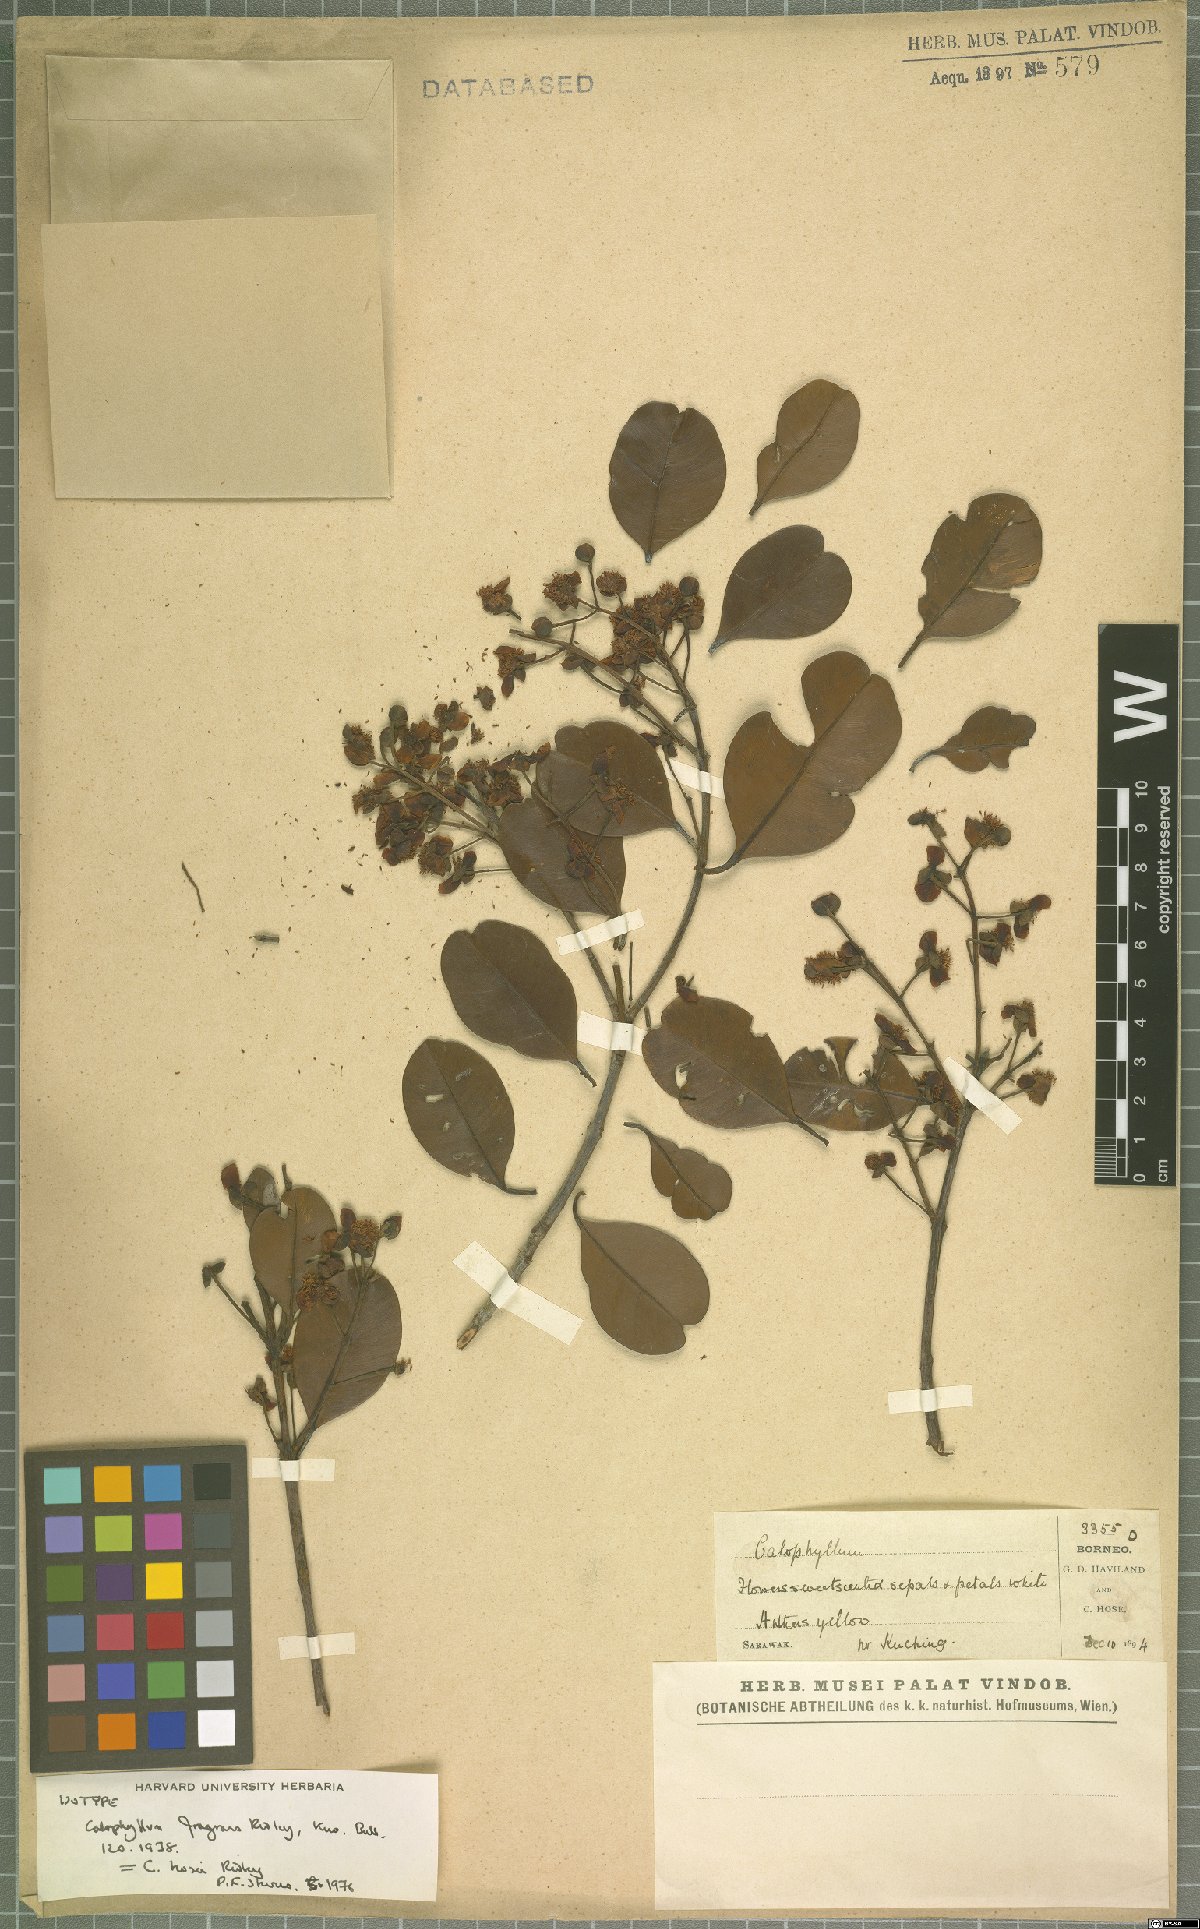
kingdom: Plantae
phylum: Tracheophyta
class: Magnoliopsida
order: Malpighiales
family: Calophyllaceae
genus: Calophyllum
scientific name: Calophyllum hosei
